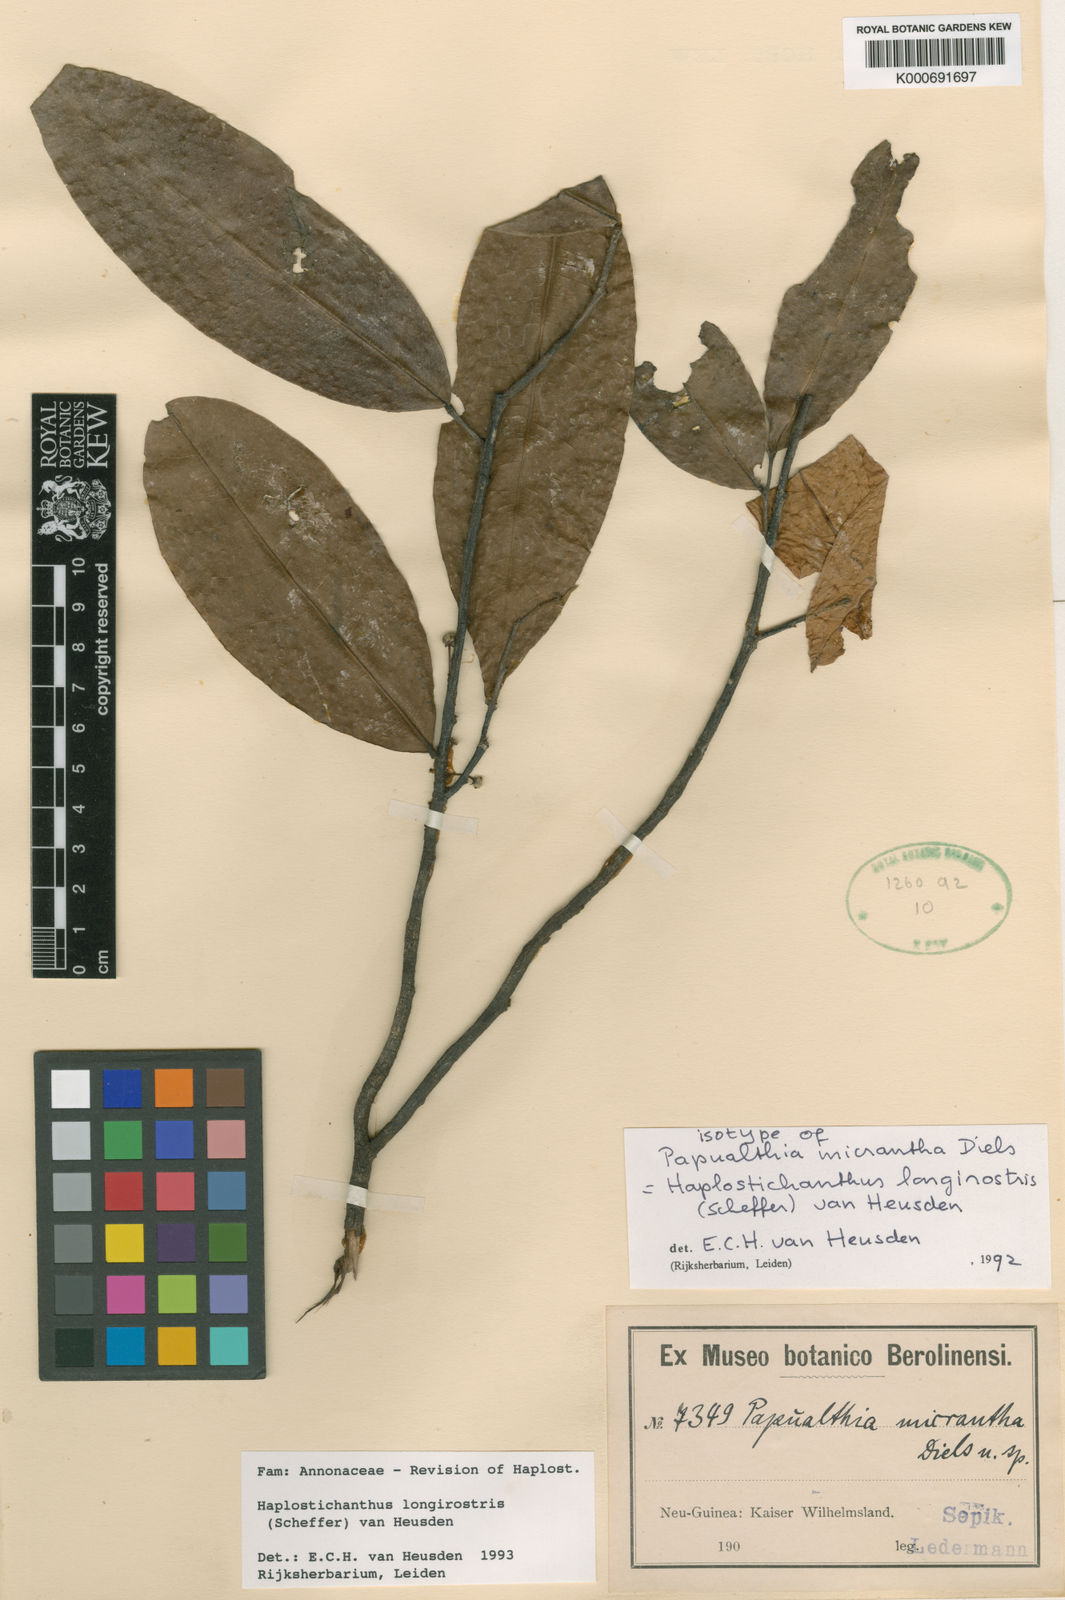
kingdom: Plantae
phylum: Tracheophyta
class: Magnoliopsida
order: Magnoliales
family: Annonaceae
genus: Haplostichanthus
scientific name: Haplostichanthus longirostris
